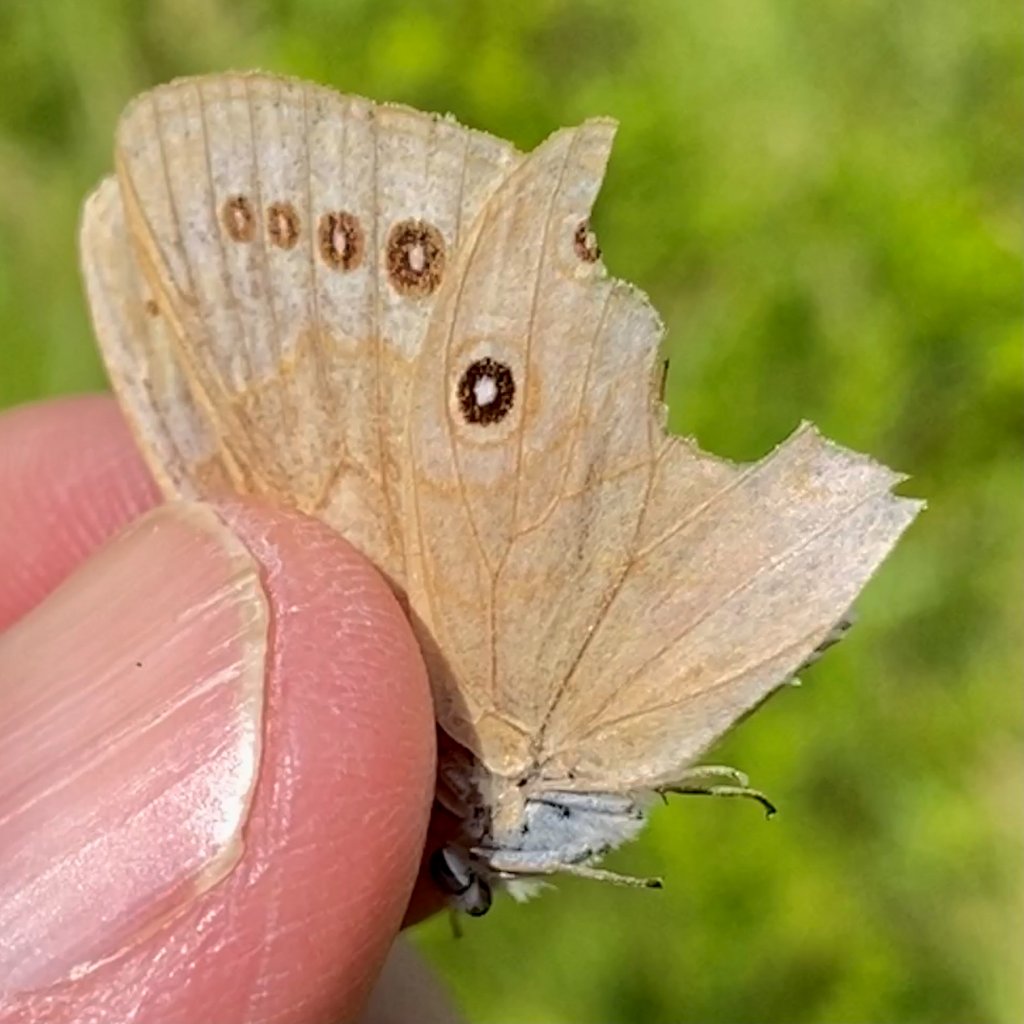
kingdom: Animalia
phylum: Arthropoda
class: Insecta
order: Lepidoptera
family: Nymphalidae
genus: Lethe
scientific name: Lethe eurydice
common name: Eyed Brown
